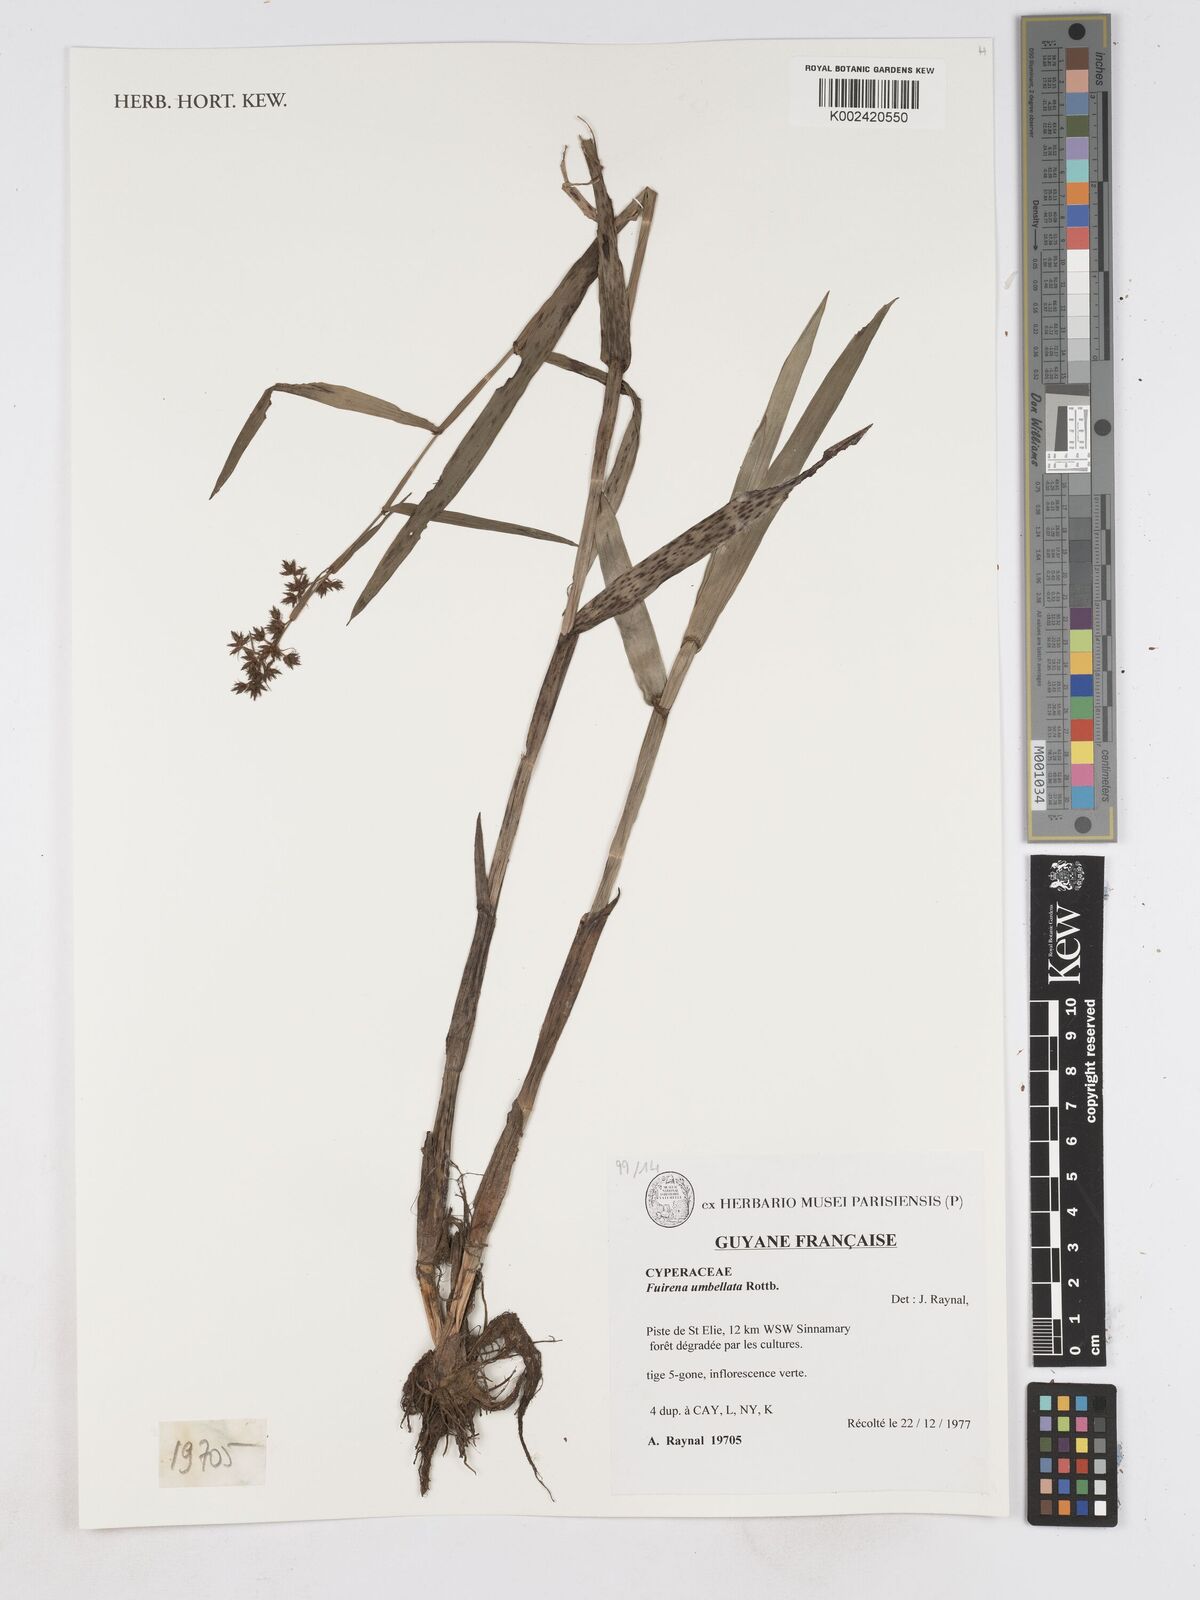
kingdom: Plantae
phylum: Tracheophyta
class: Liliopsida
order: Poales
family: Cyperaceae
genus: Fuirena
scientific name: Fuirena umbellata
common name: Yefen
